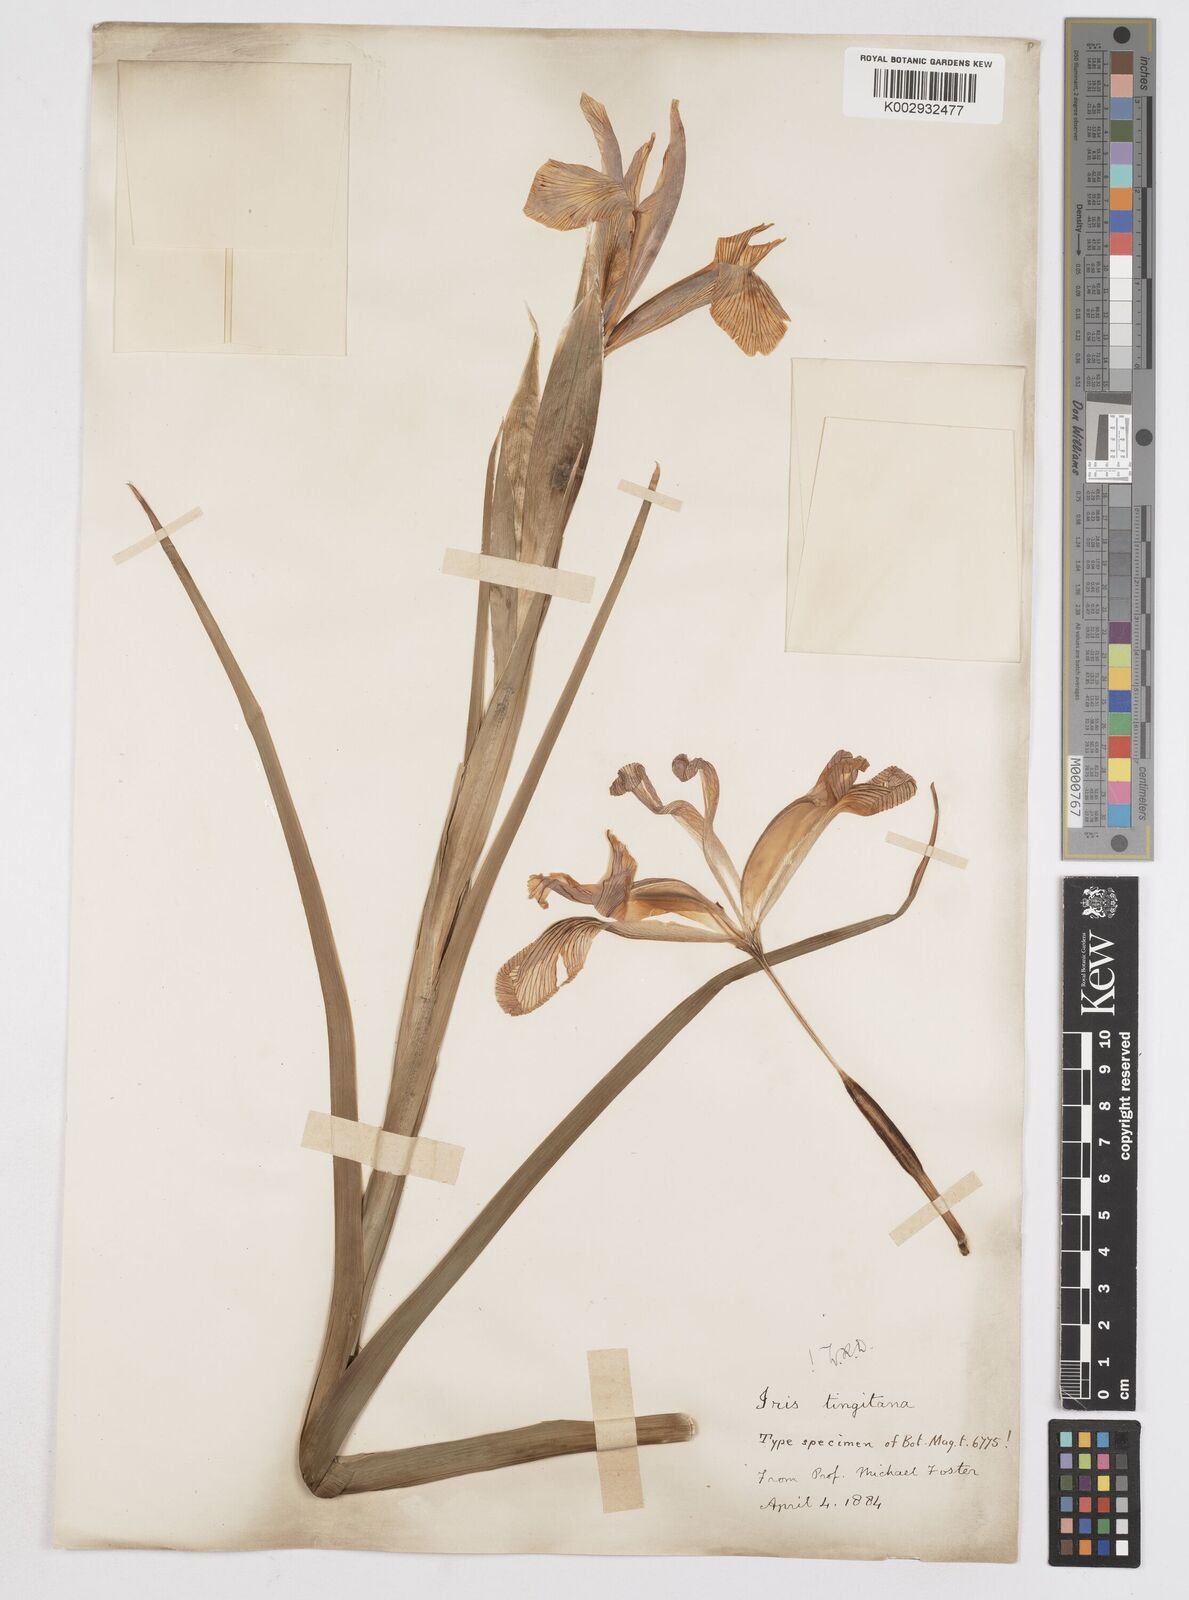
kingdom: Plantae
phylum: Tracheophyta
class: Liliopsida
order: Asparagales
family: Iridaceae
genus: Iris
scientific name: Iris tingitana
